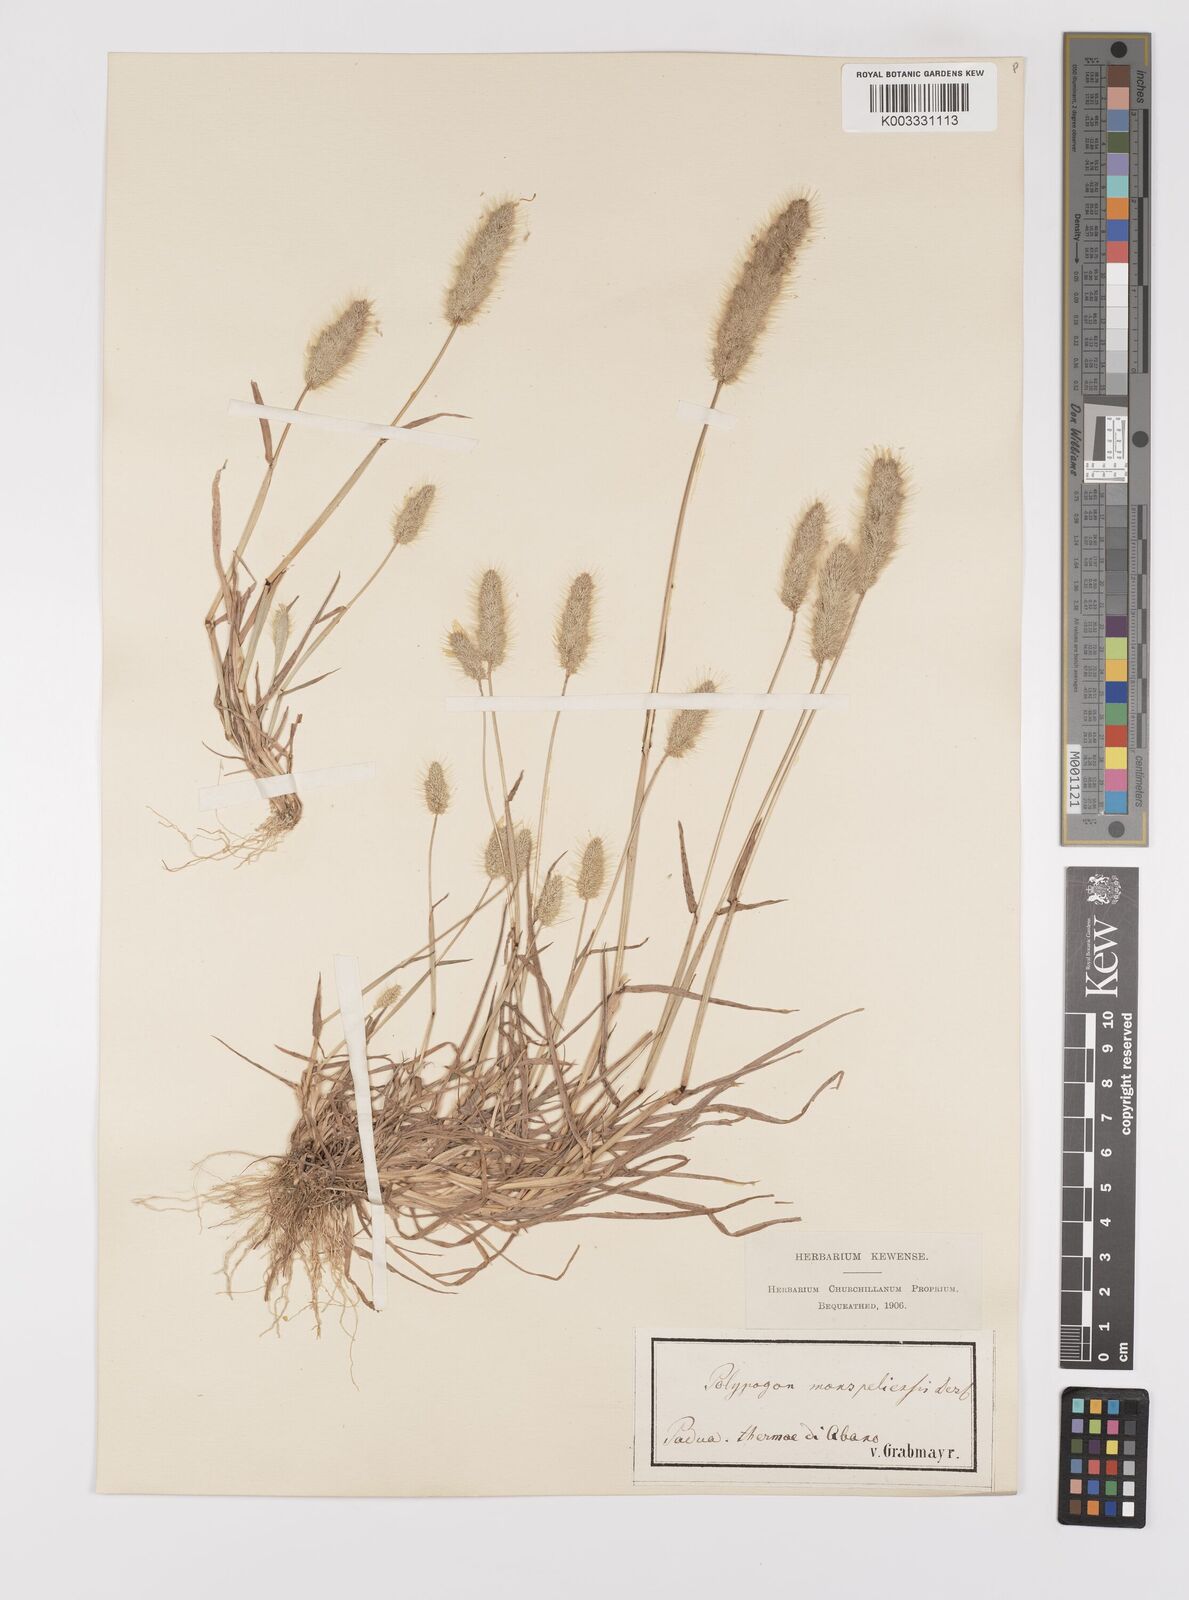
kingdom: Plantae
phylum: Tracheophyta
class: Liliopsida
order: Poales
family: Poaceae
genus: Polypogon
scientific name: Polypogon monspeliensis
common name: Annual rabbitsfoot grass
